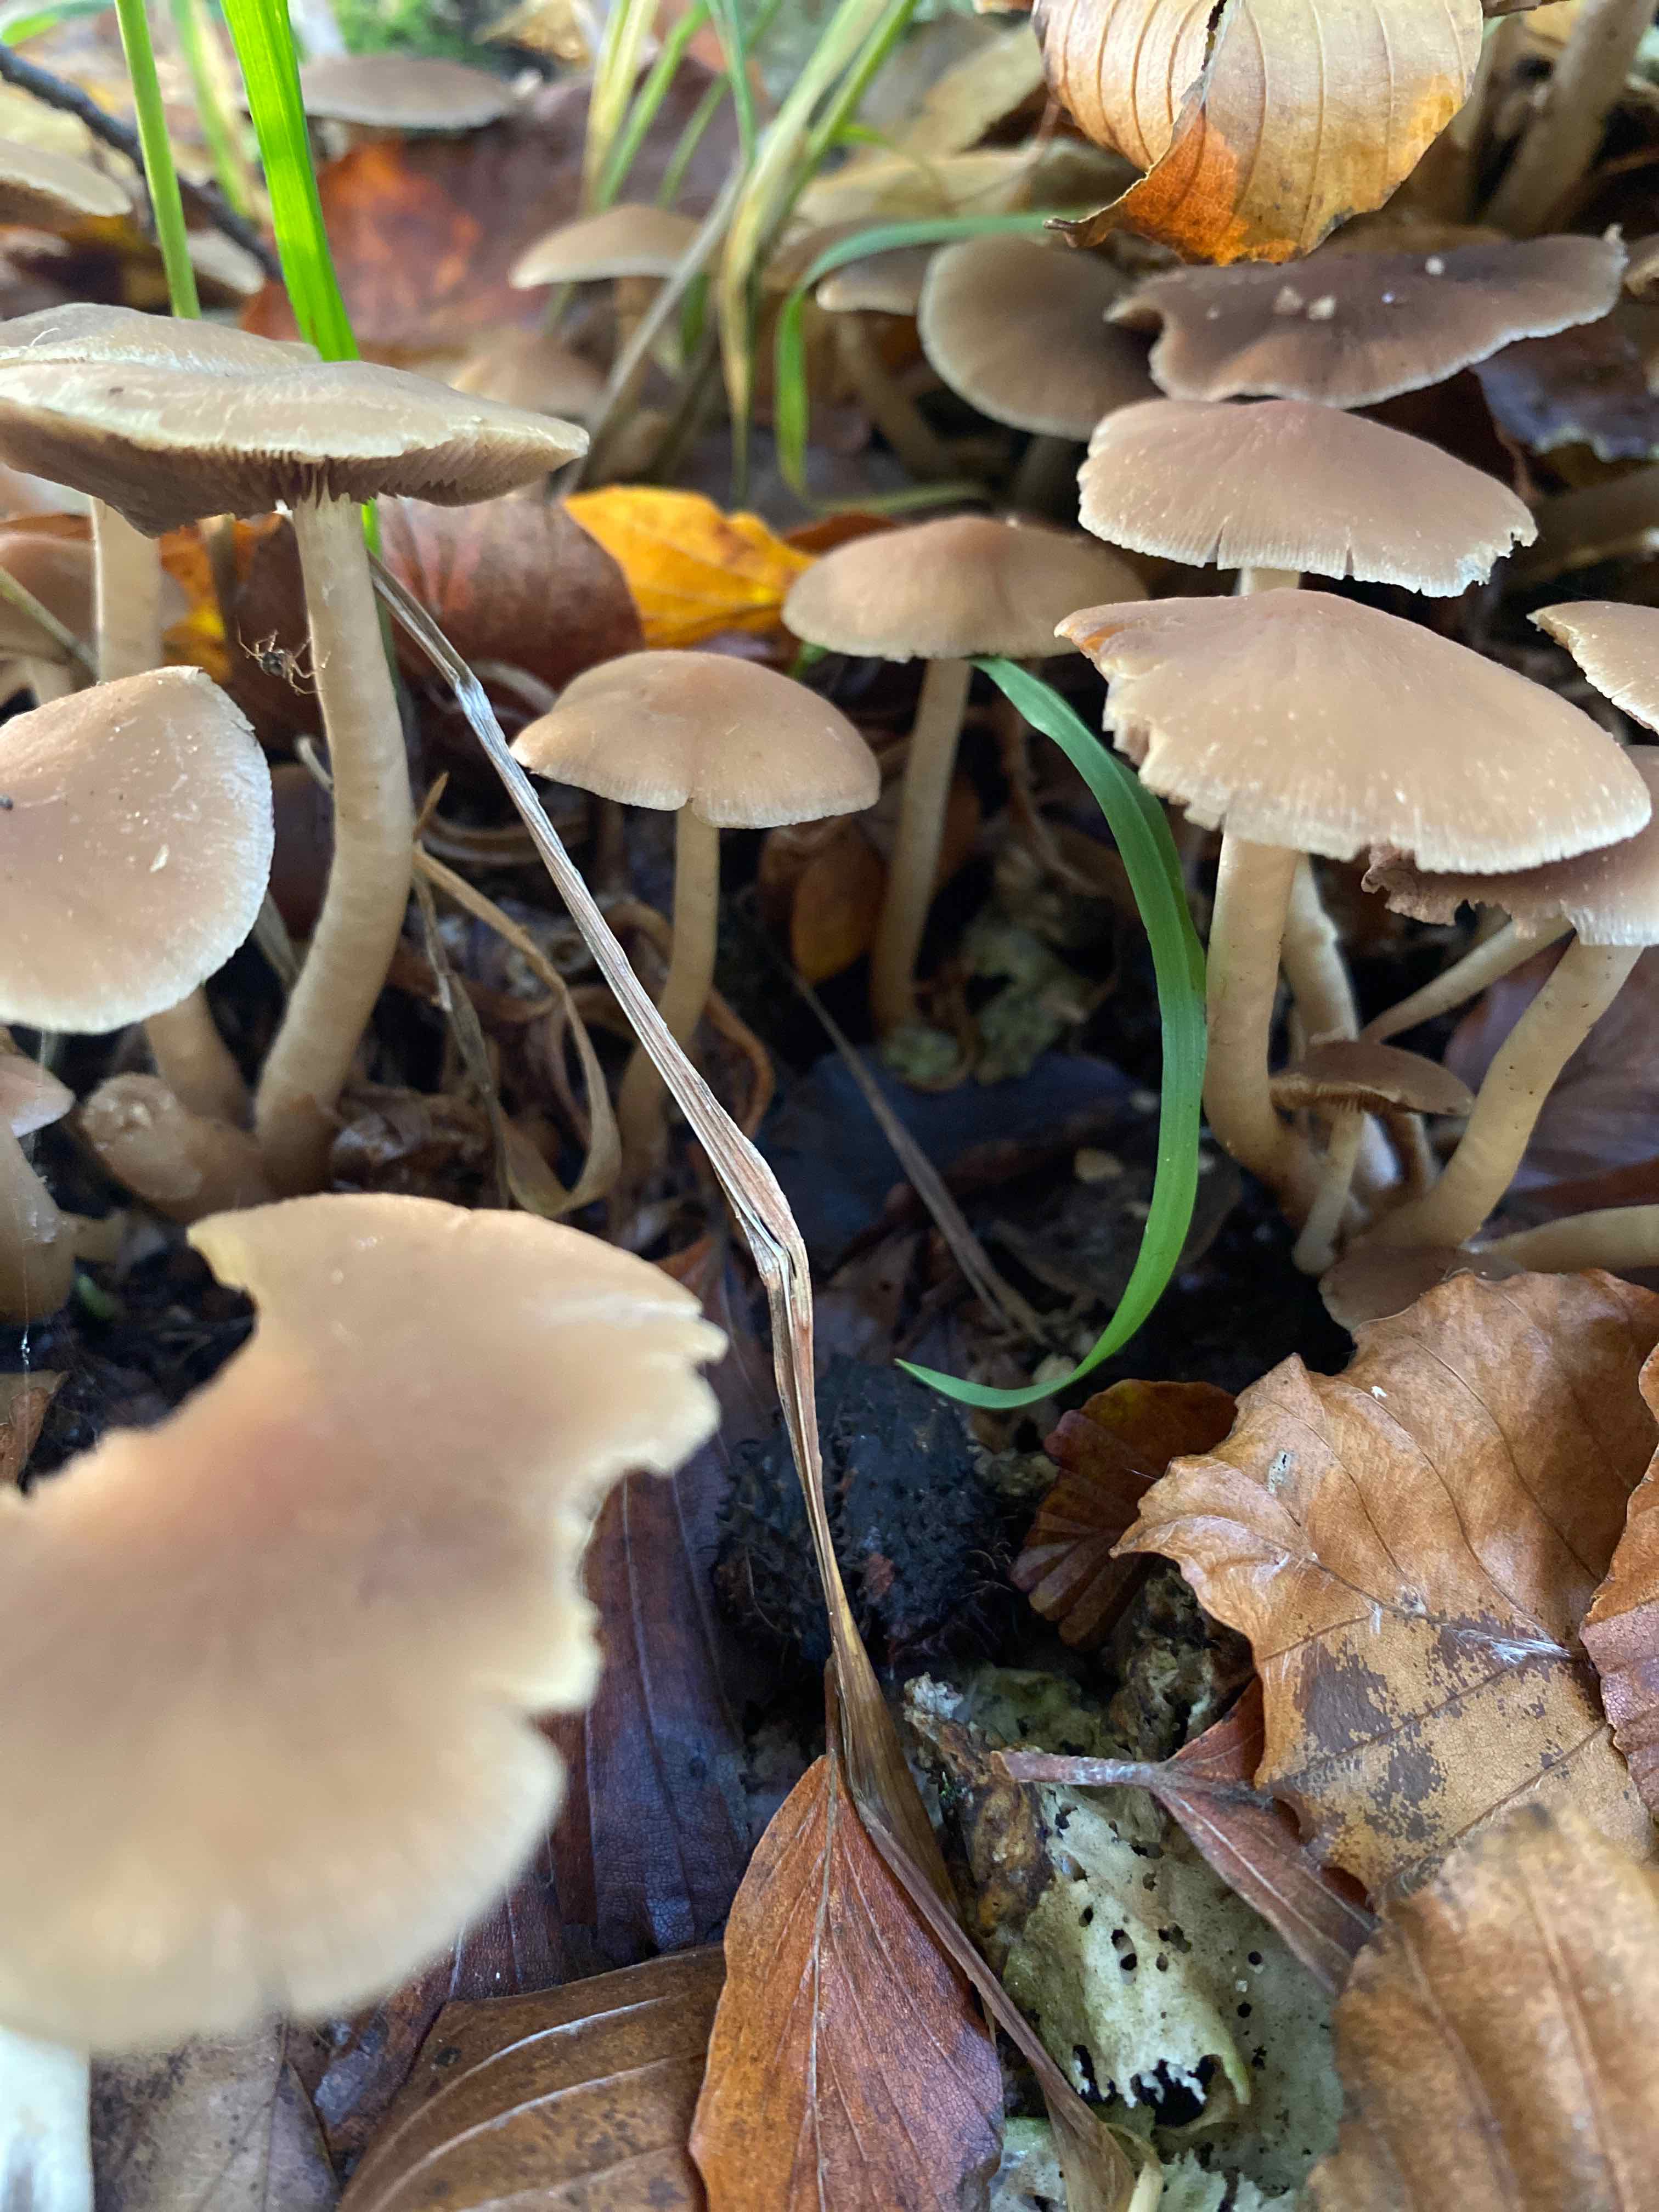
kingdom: Fungi
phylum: Basidiomycota
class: Agaricomycetes
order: Agaricales
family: Psathyrellaceae
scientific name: Psathyrellaceae
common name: mørkhatfamilien
